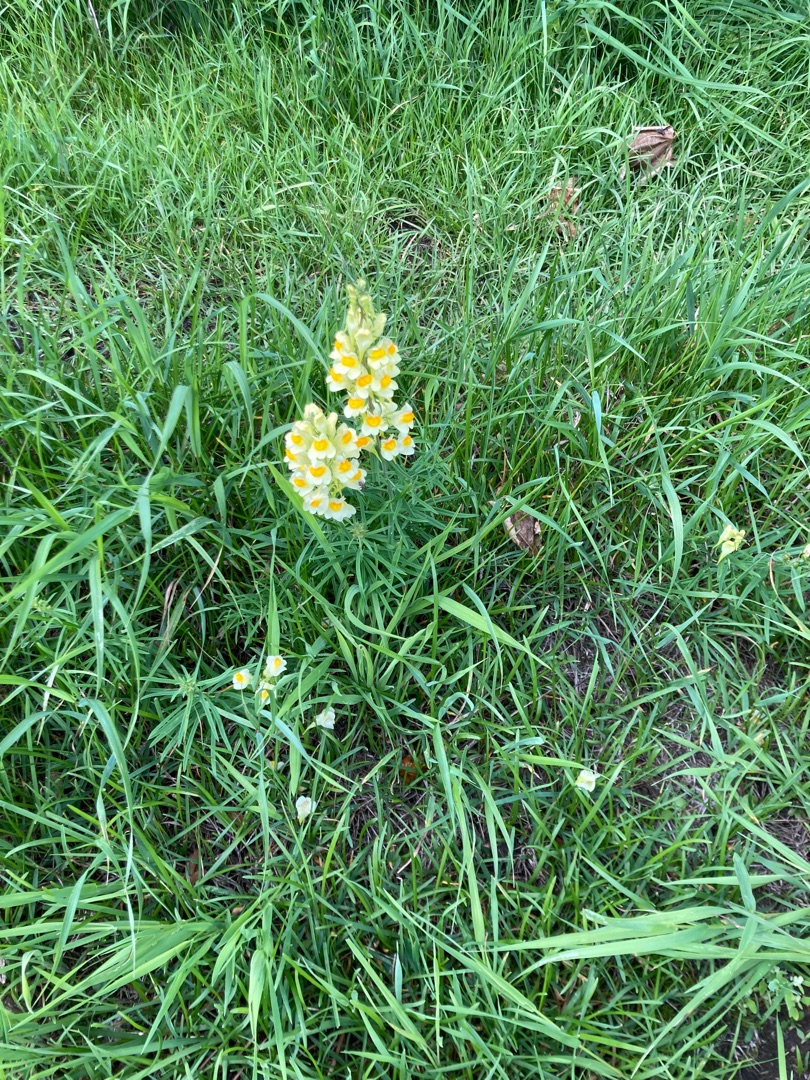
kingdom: Plantae
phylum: Tracheophyta
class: Magnoliopsida
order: Lamiales
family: Plantaginaceae
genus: Linaria
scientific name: Linaria vulgaris
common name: Almindelig torskemund
